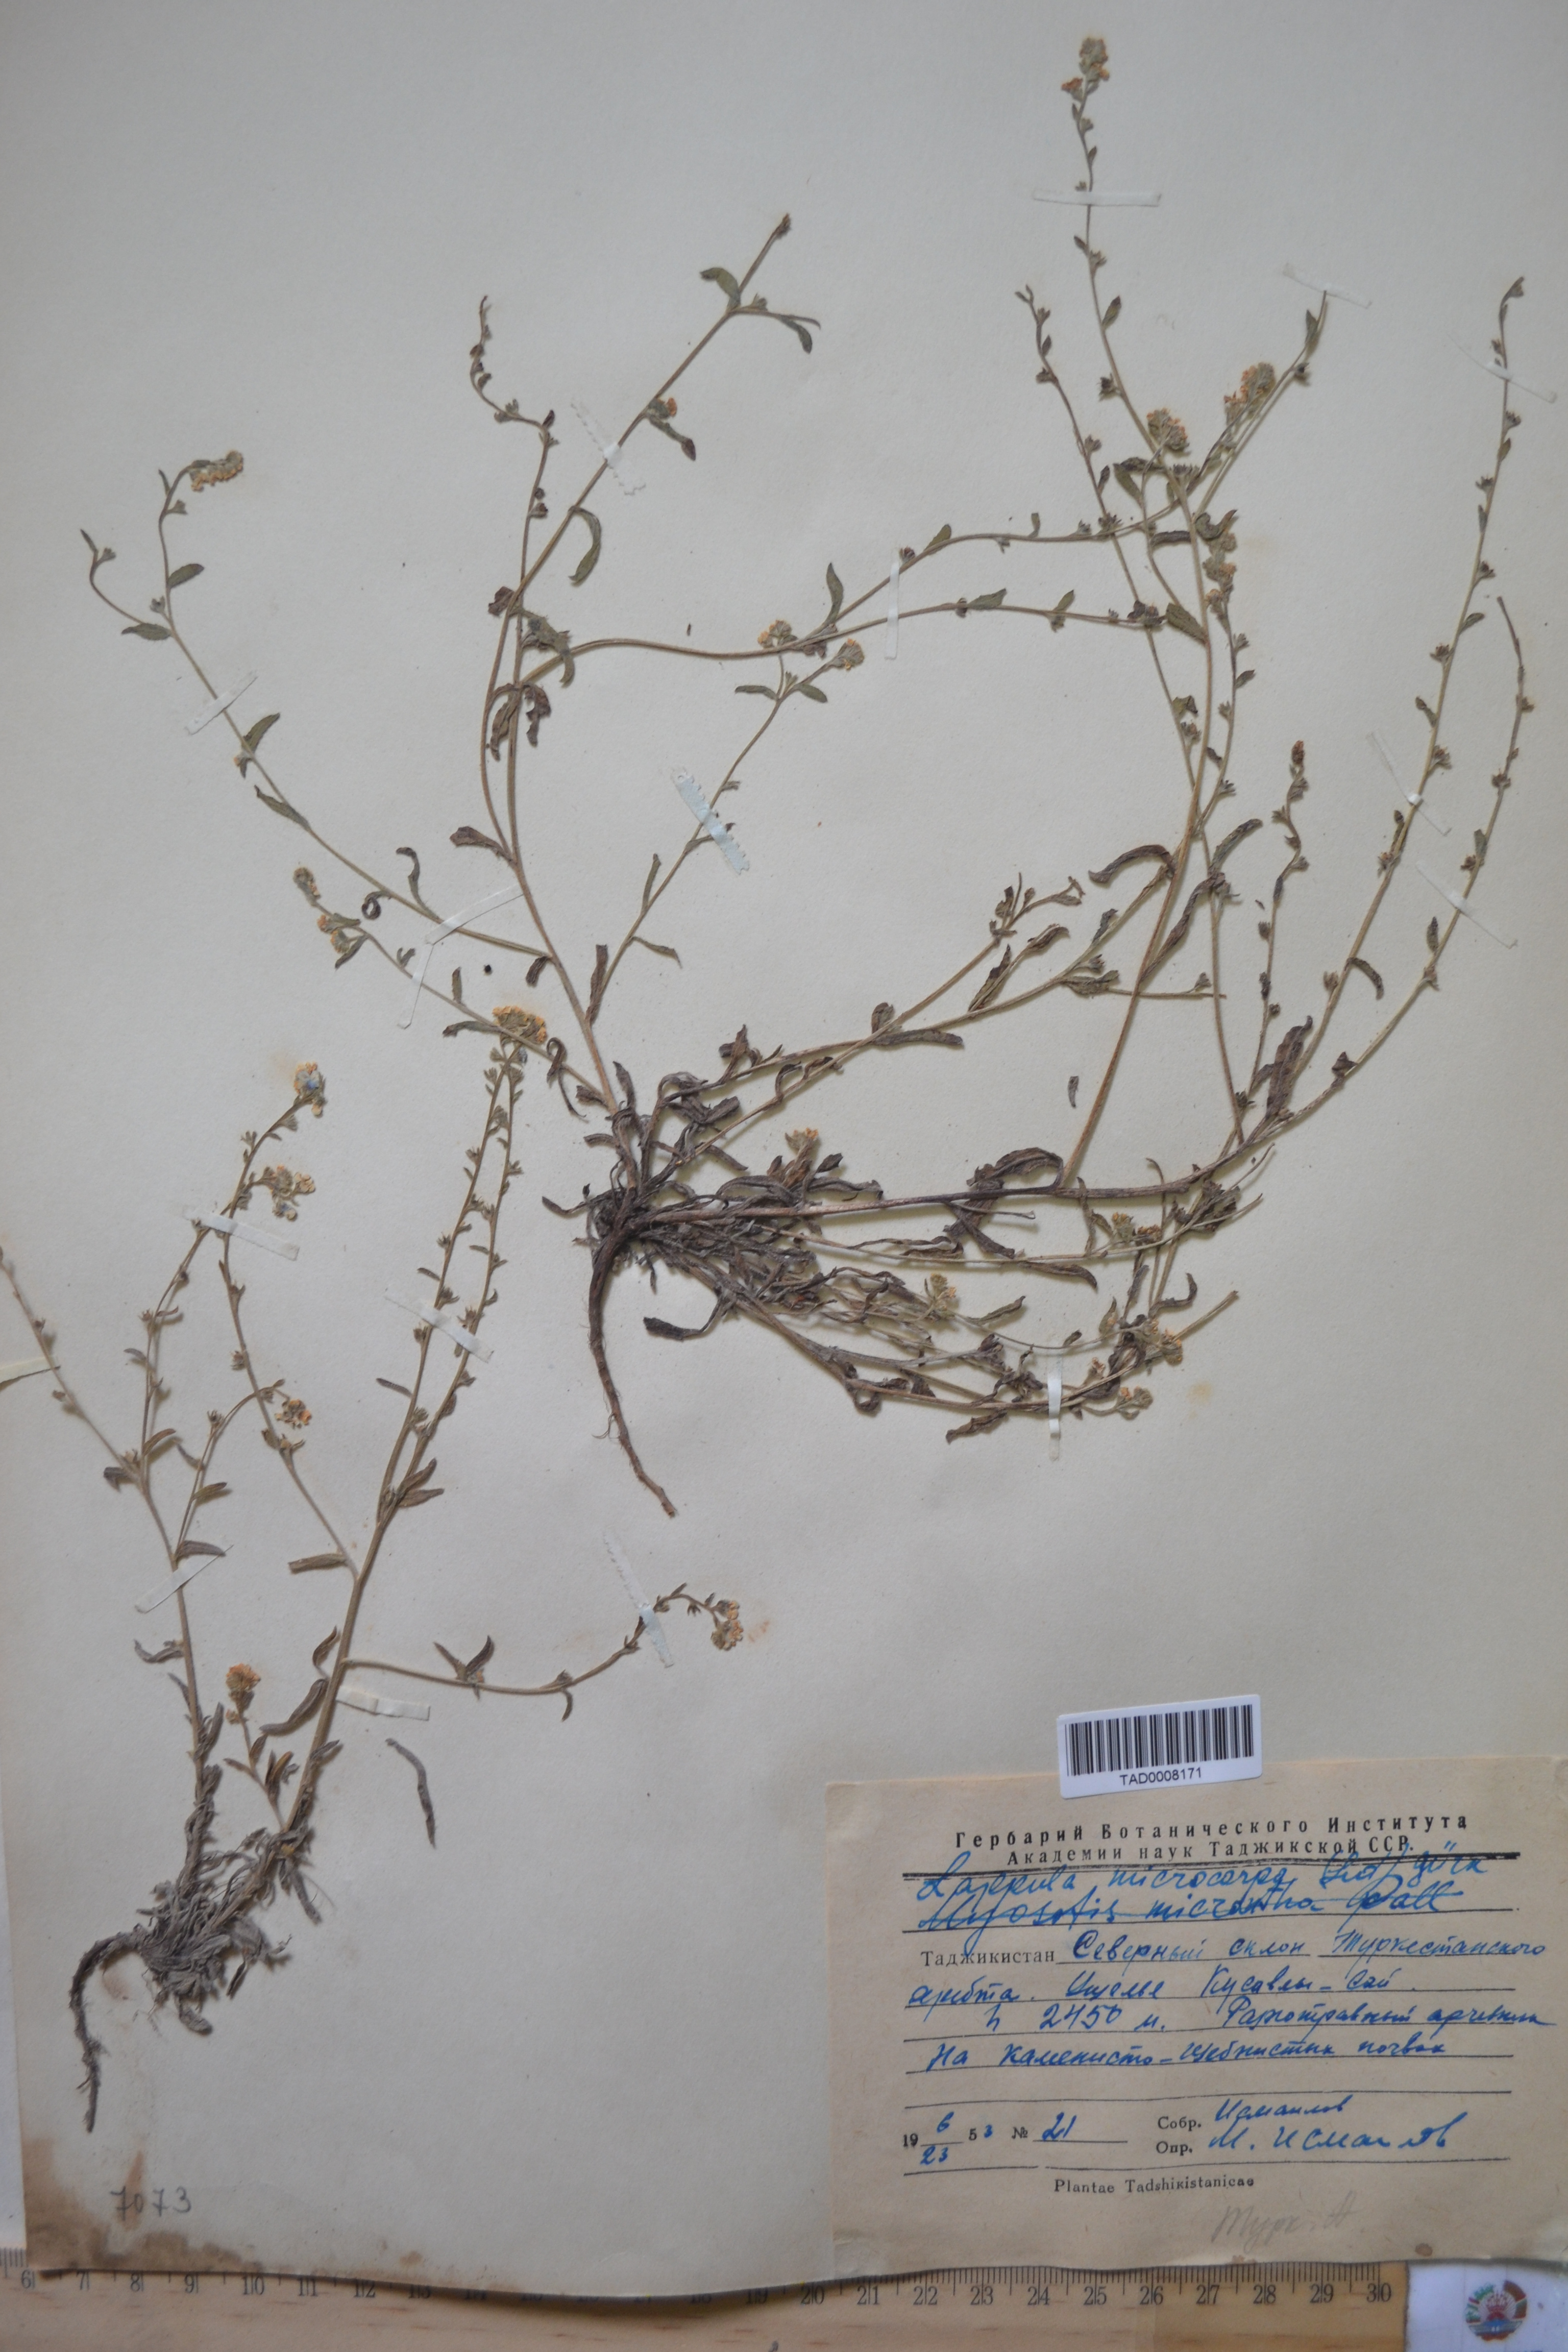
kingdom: Plantae
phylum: Tracheophyta
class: Magnoliopsida
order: Boraginales
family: Boraginaceae
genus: Lappula
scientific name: Lappula microcarpa
